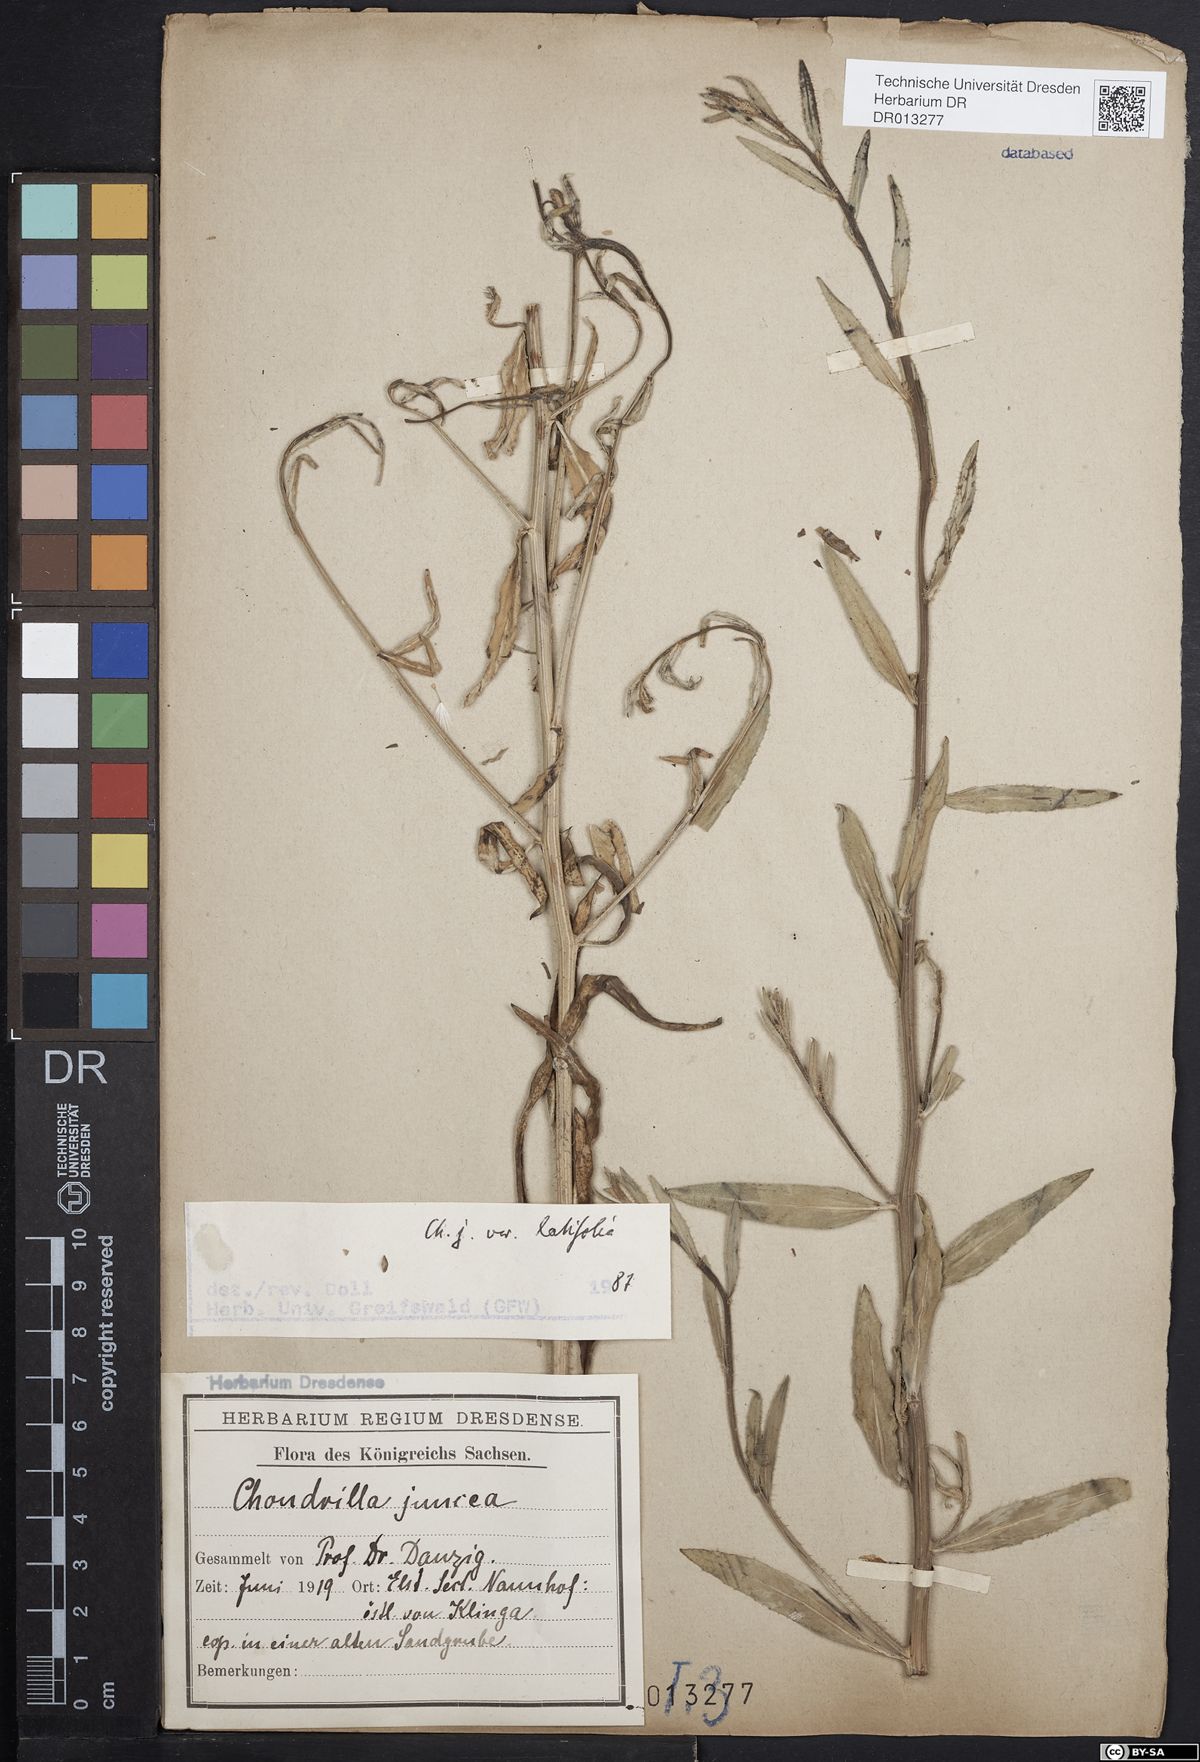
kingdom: Plantae
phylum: Tracheophyta
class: Magnoliopsida
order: Asterales
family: Asteraceae
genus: Chondrilla
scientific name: Chondrilla juncea
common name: Skeleton weed
